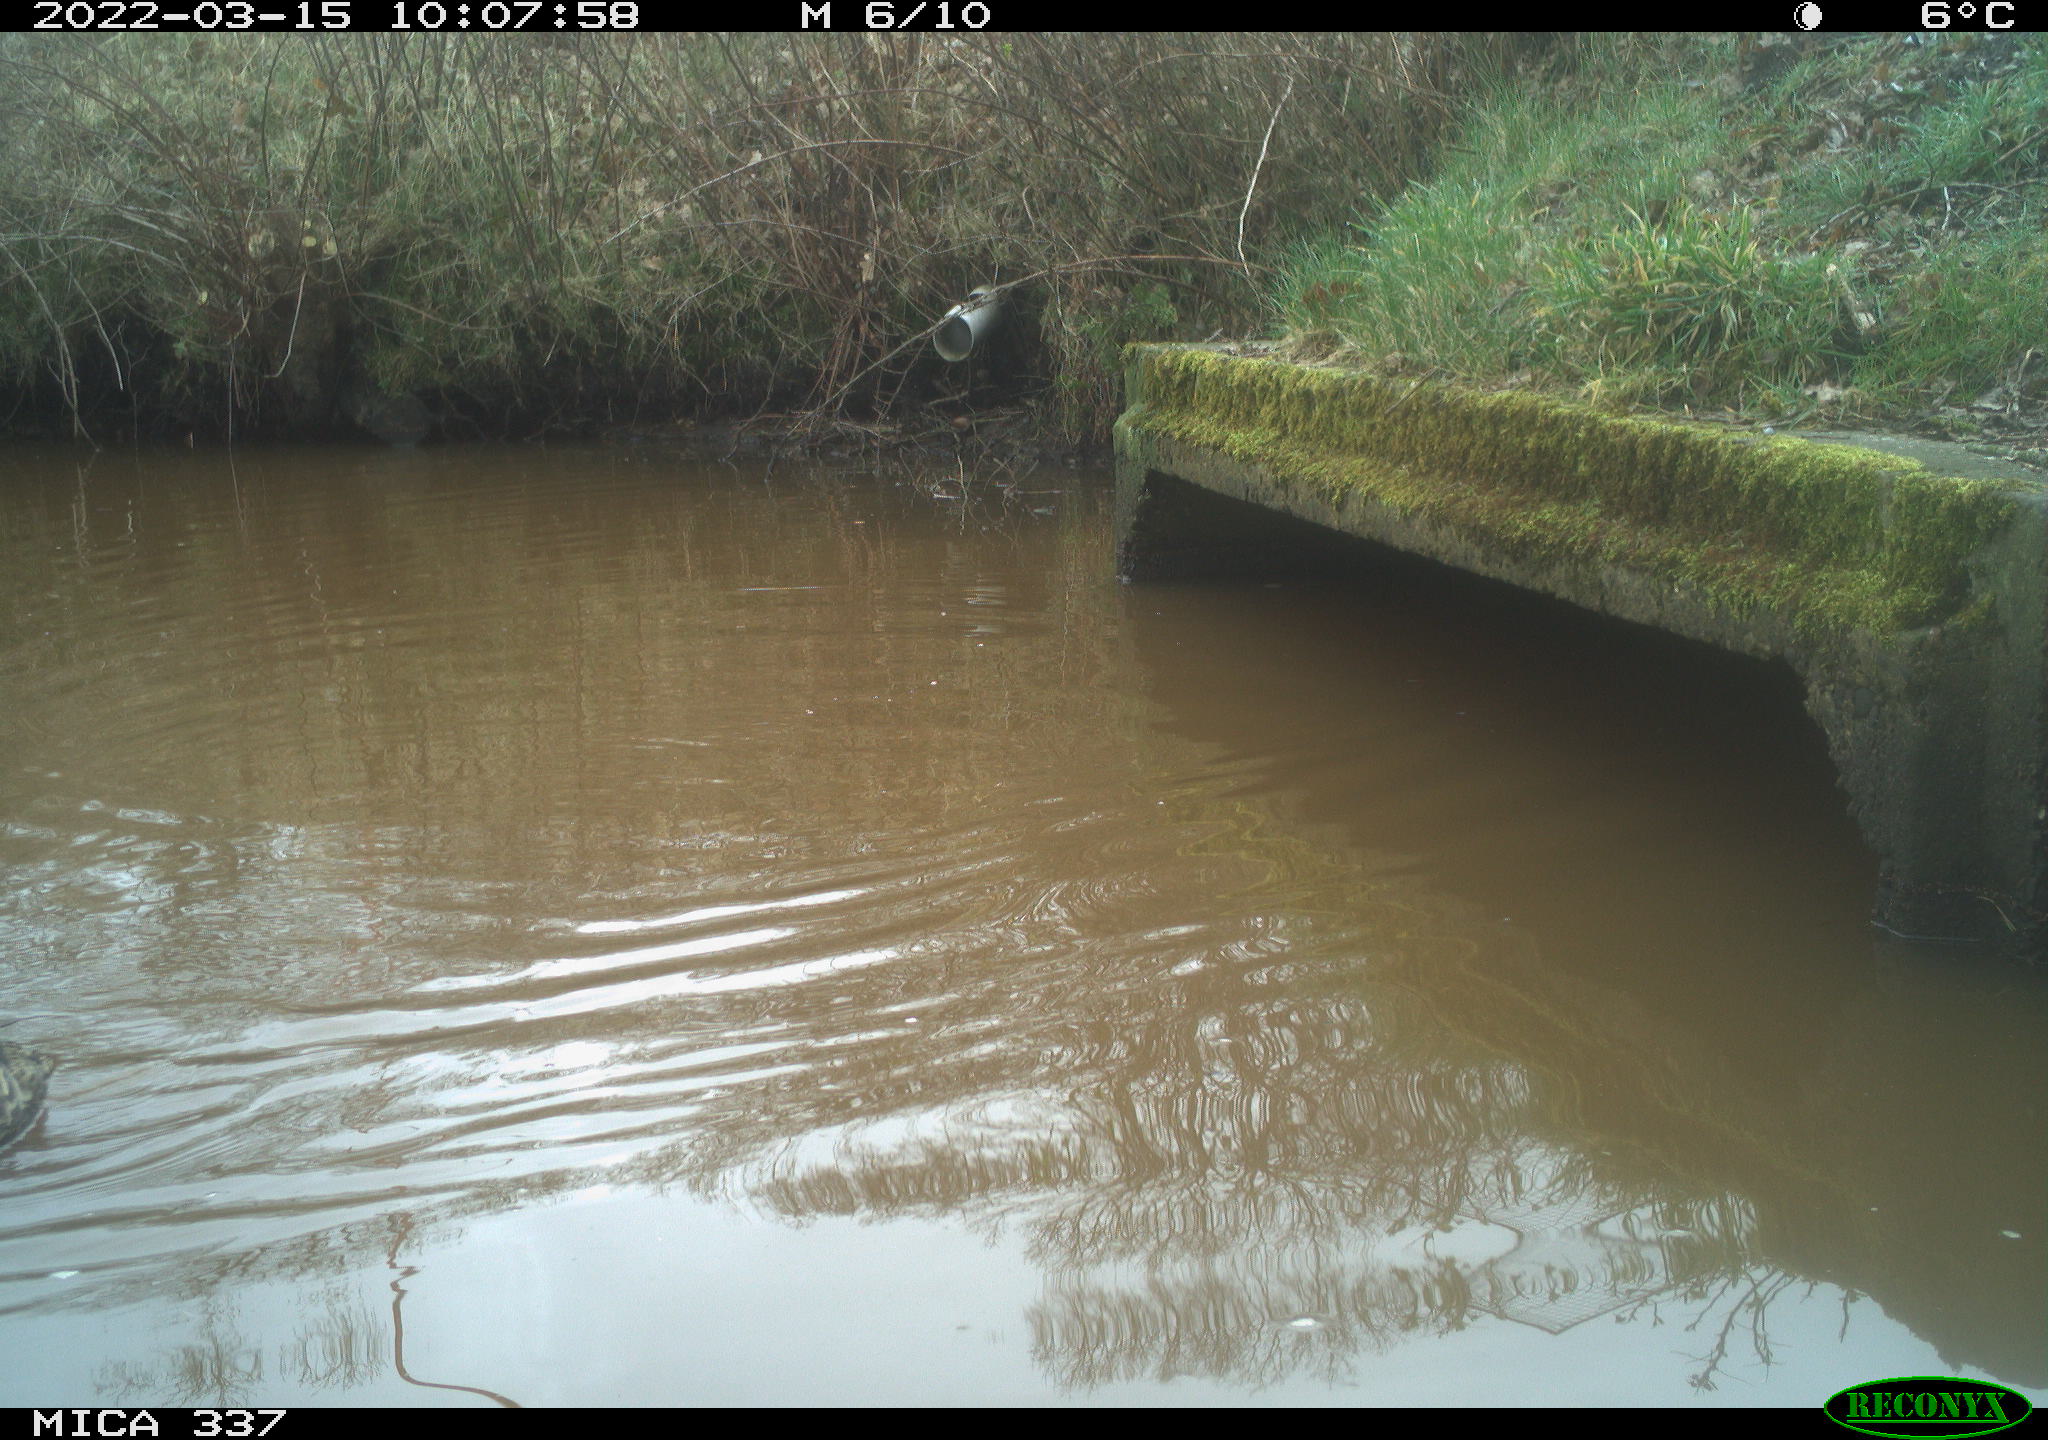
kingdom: Animalia
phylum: Chordata
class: Aves
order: Anseriformes
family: Anatidae
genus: Anas
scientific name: Anas platyrhynchos
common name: Mallard
